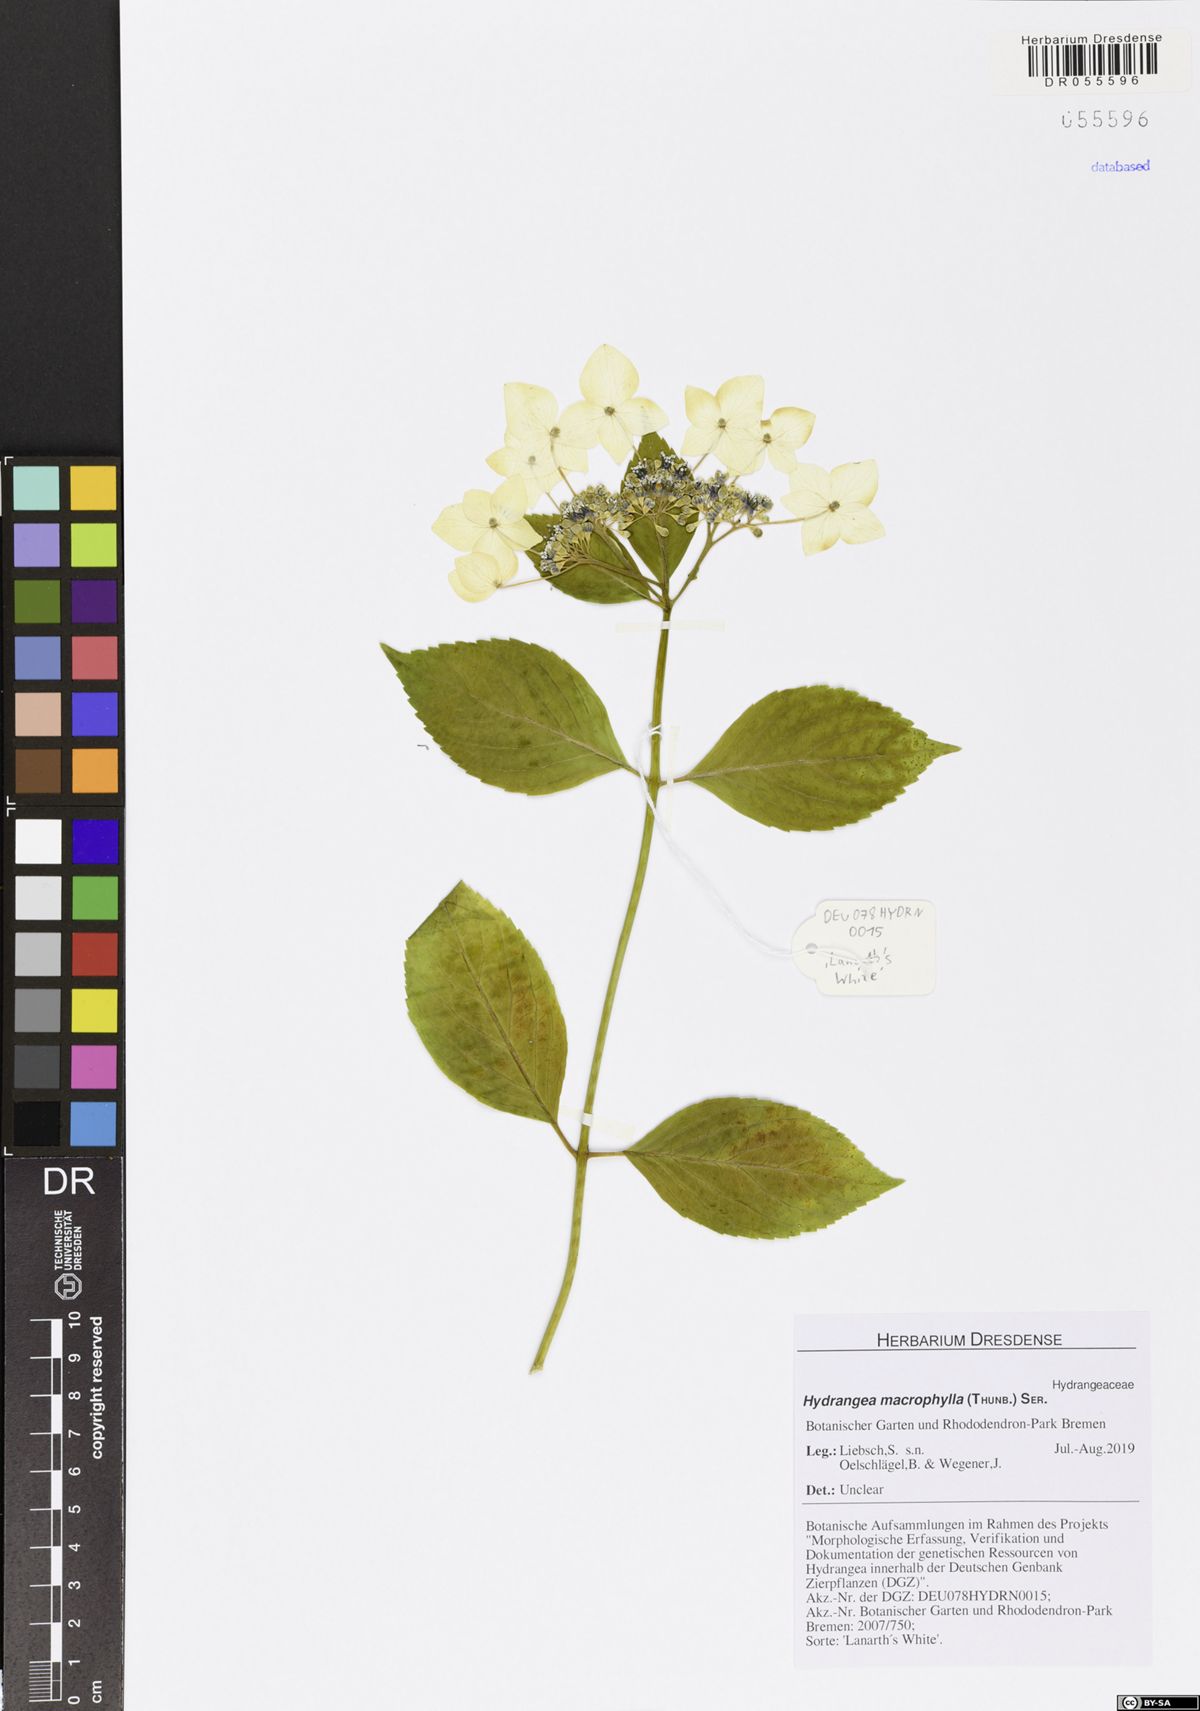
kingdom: Plantae
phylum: Tracheophyta
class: Magnoliopsida
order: Cornales
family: Hydrangeaceae
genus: Hydrangea
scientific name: Hydrangea macrophylla
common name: Hydrangea
